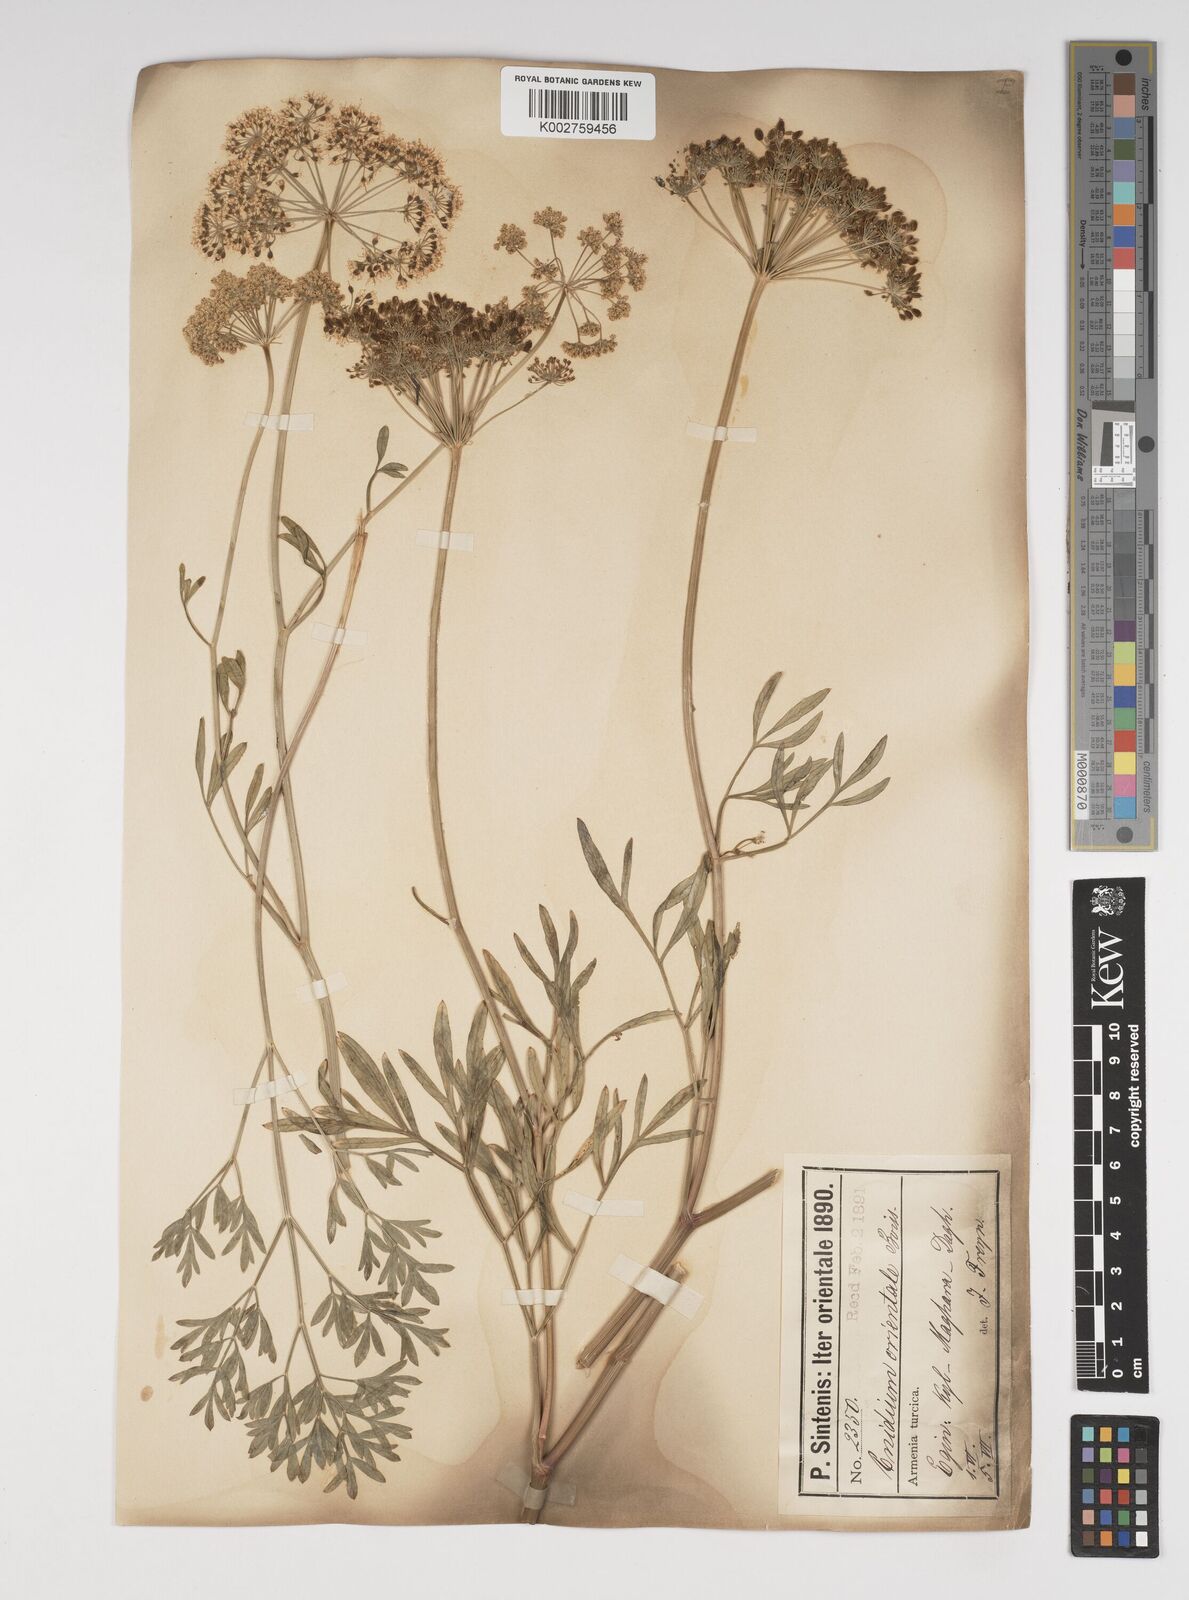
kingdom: Plantae
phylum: Tracheophyta
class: Magnoliopsida
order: Apiales
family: Apiaceae
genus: Katapsuxis
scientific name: Katapsuxis silaifolia
